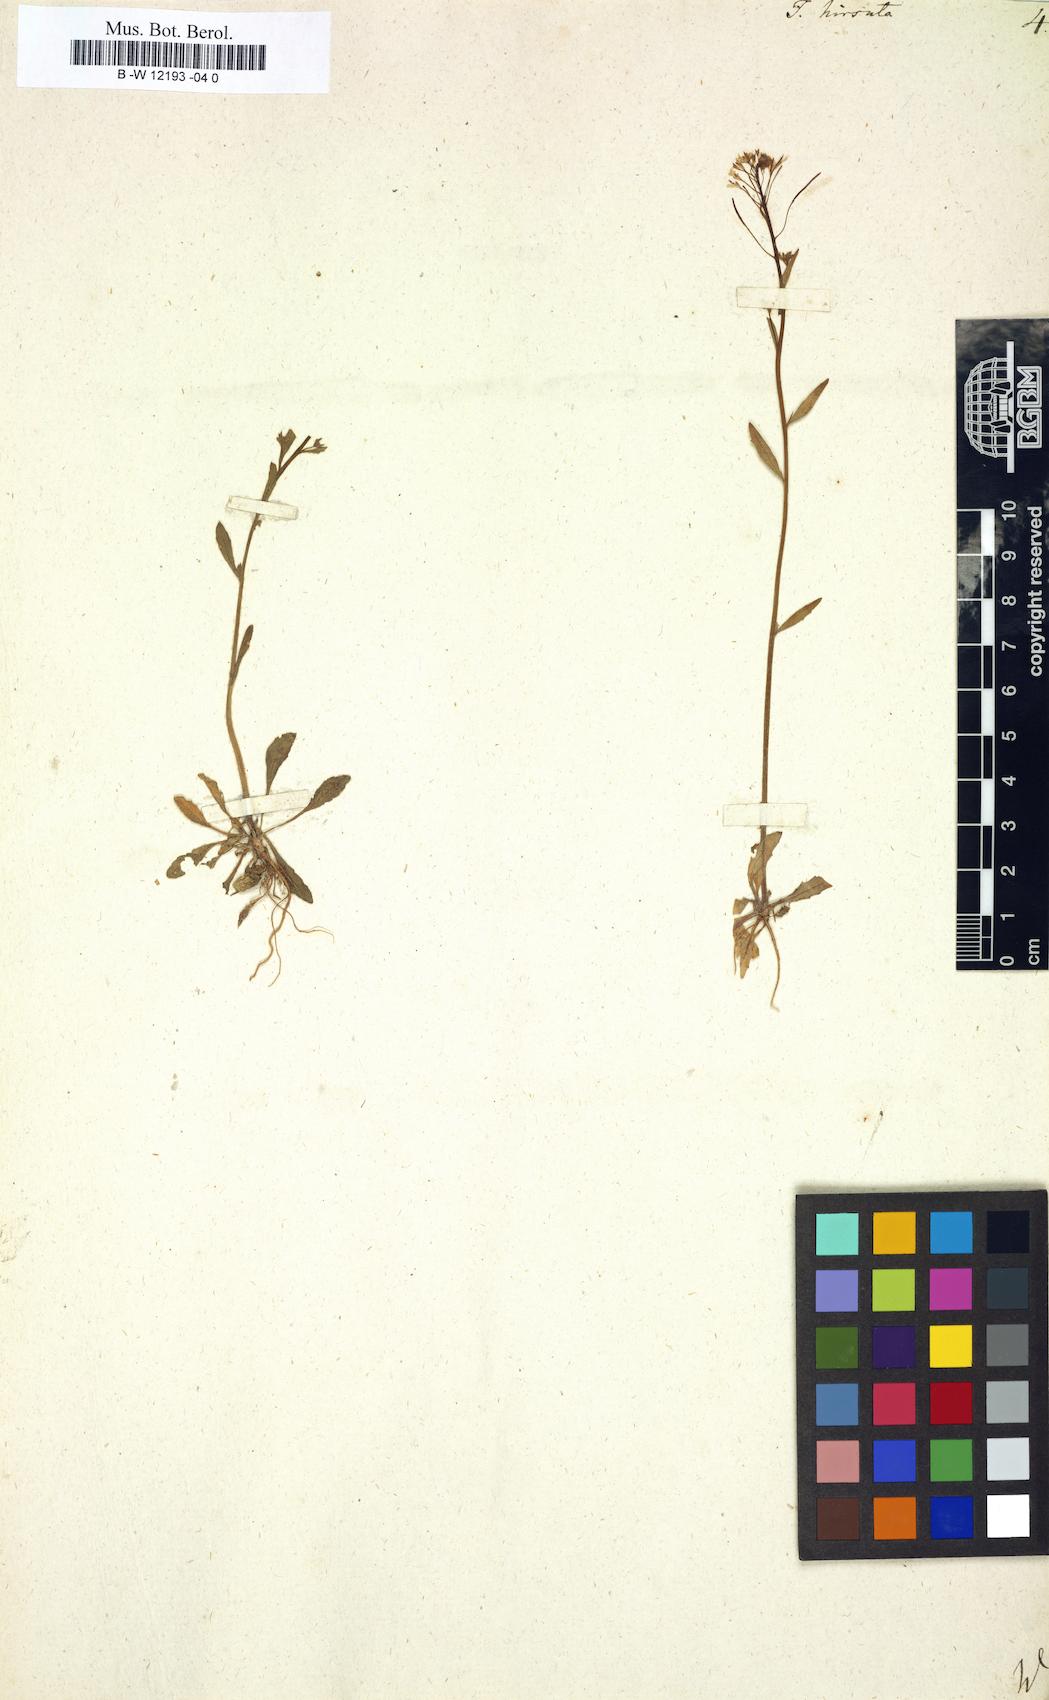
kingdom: Plantae
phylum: Tracheophyta
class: Magnoliopsida
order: Brassicales
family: Brassicaceae
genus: Turritis
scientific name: Turritis hirsuta
